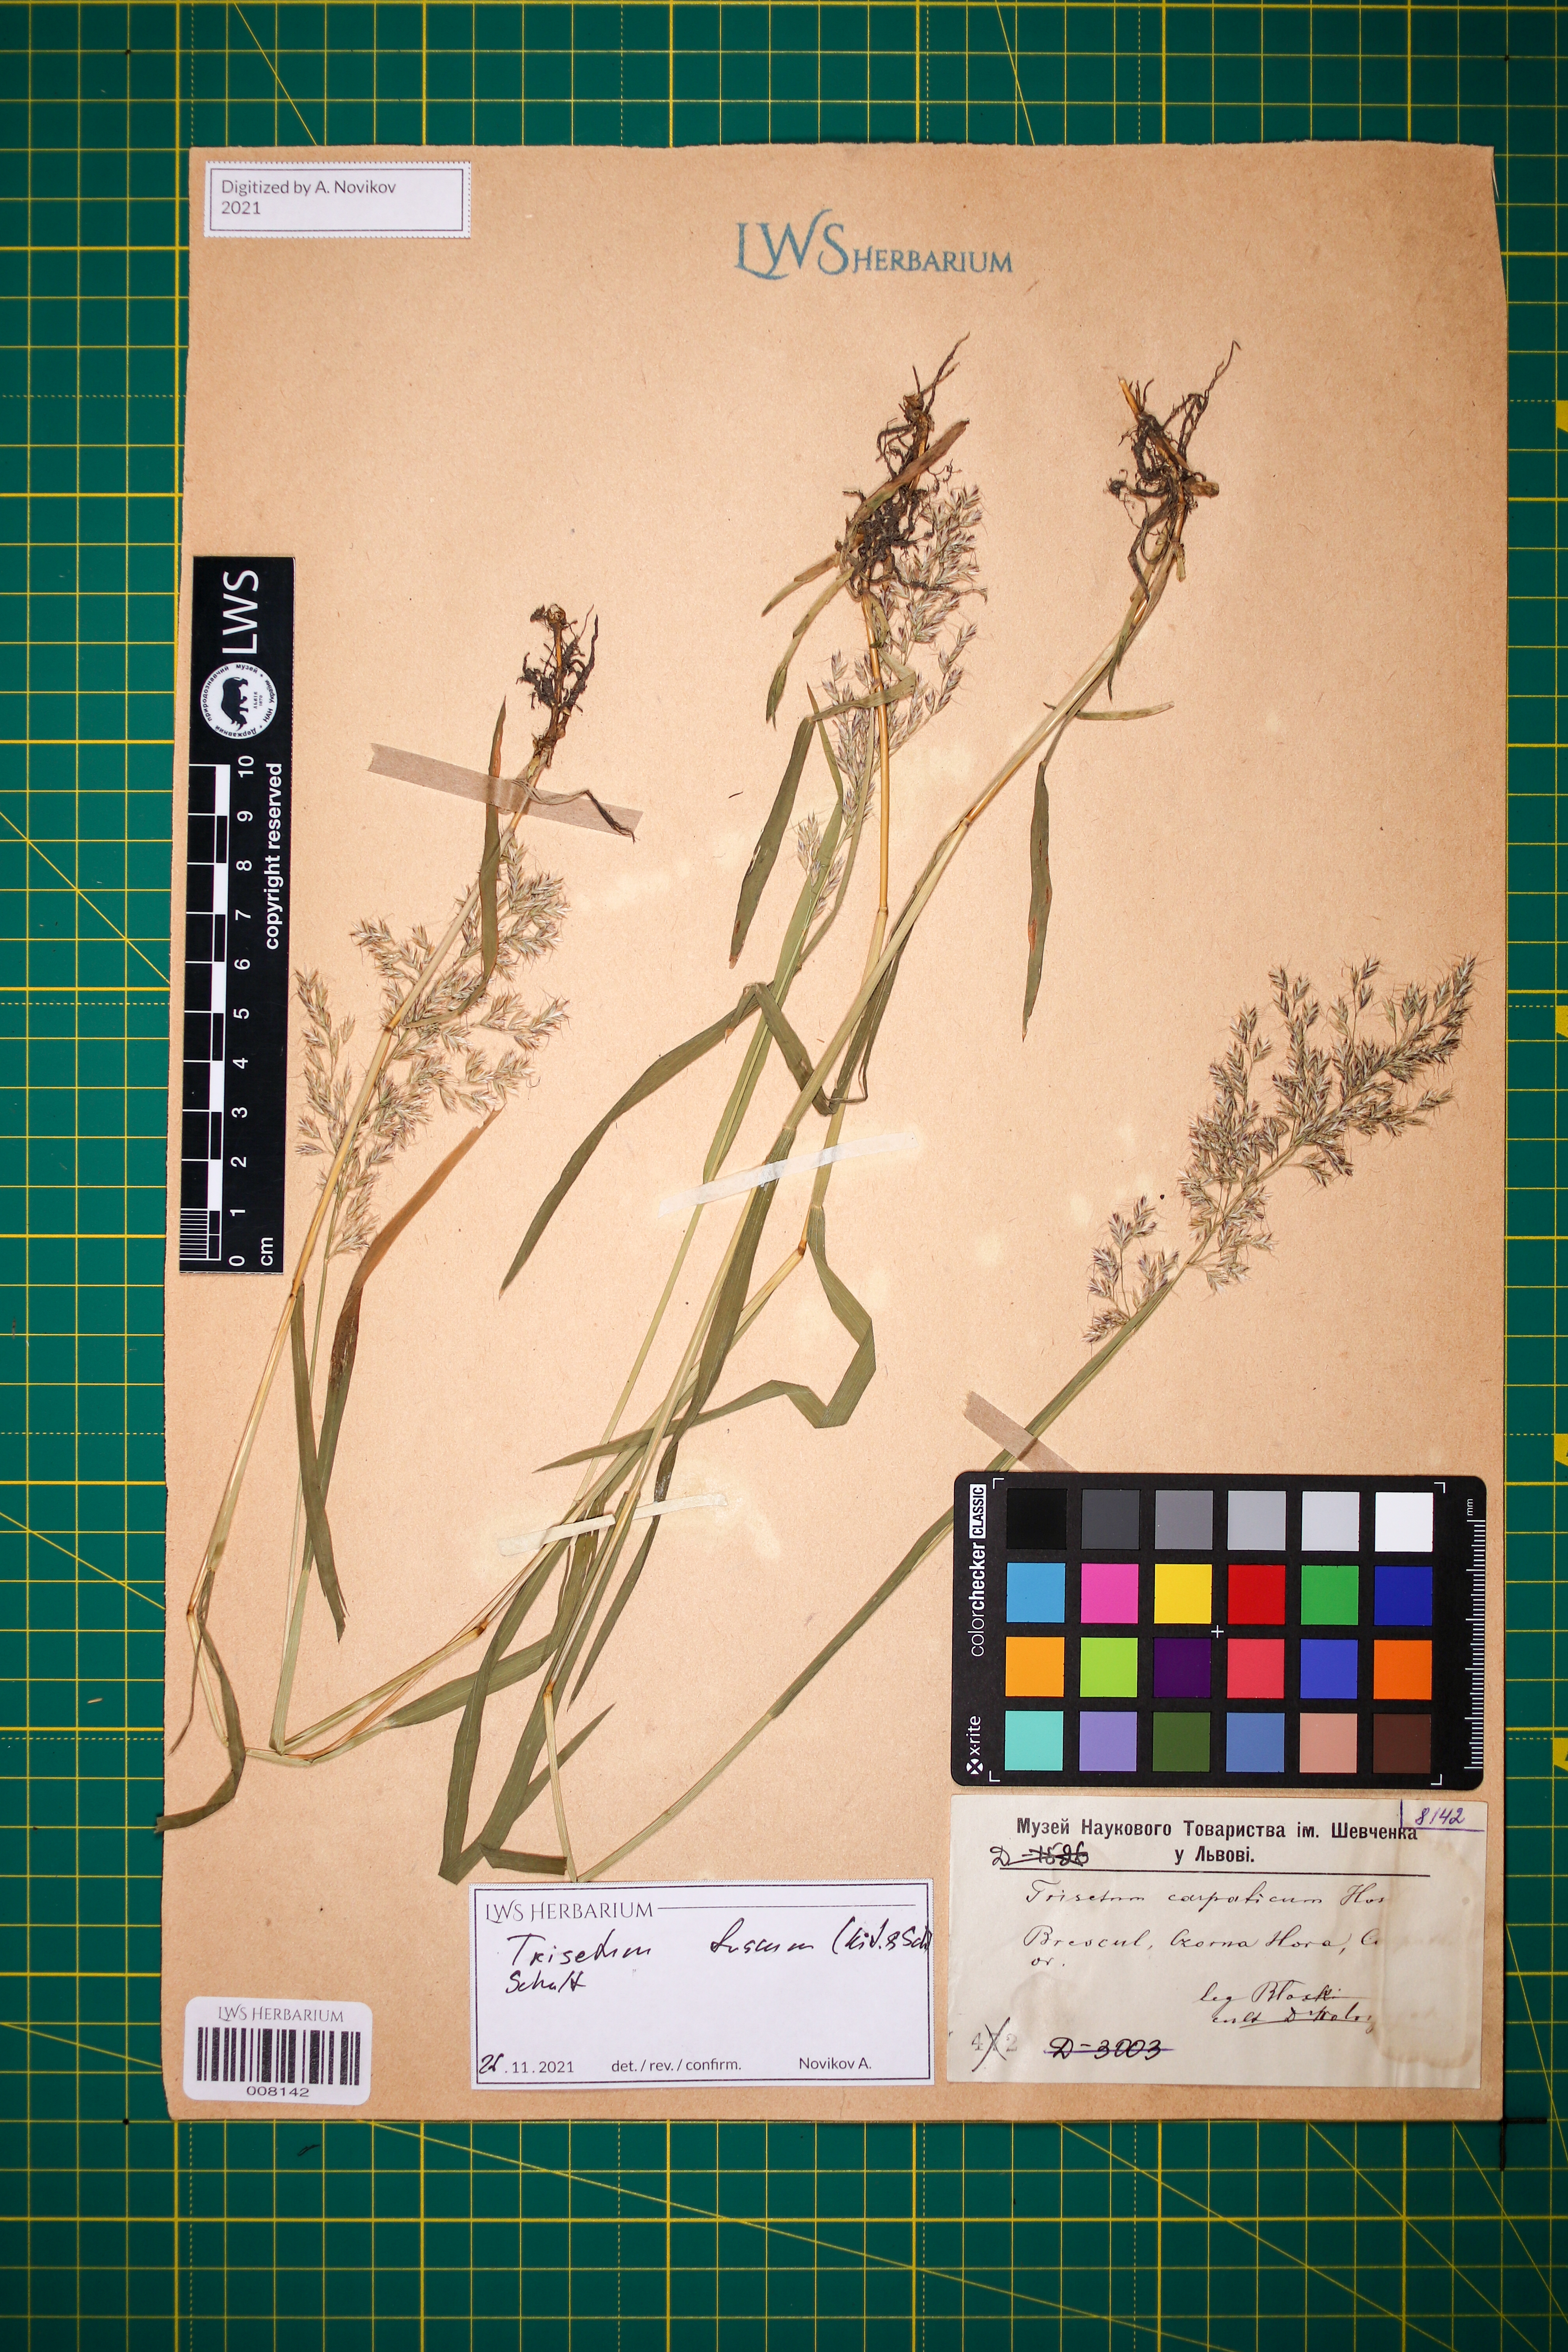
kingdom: Plantae
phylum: Tracheophyta
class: Liliopsida
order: Poales
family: Poaceae
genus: Trisetum
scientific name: Trisetum fuscum
